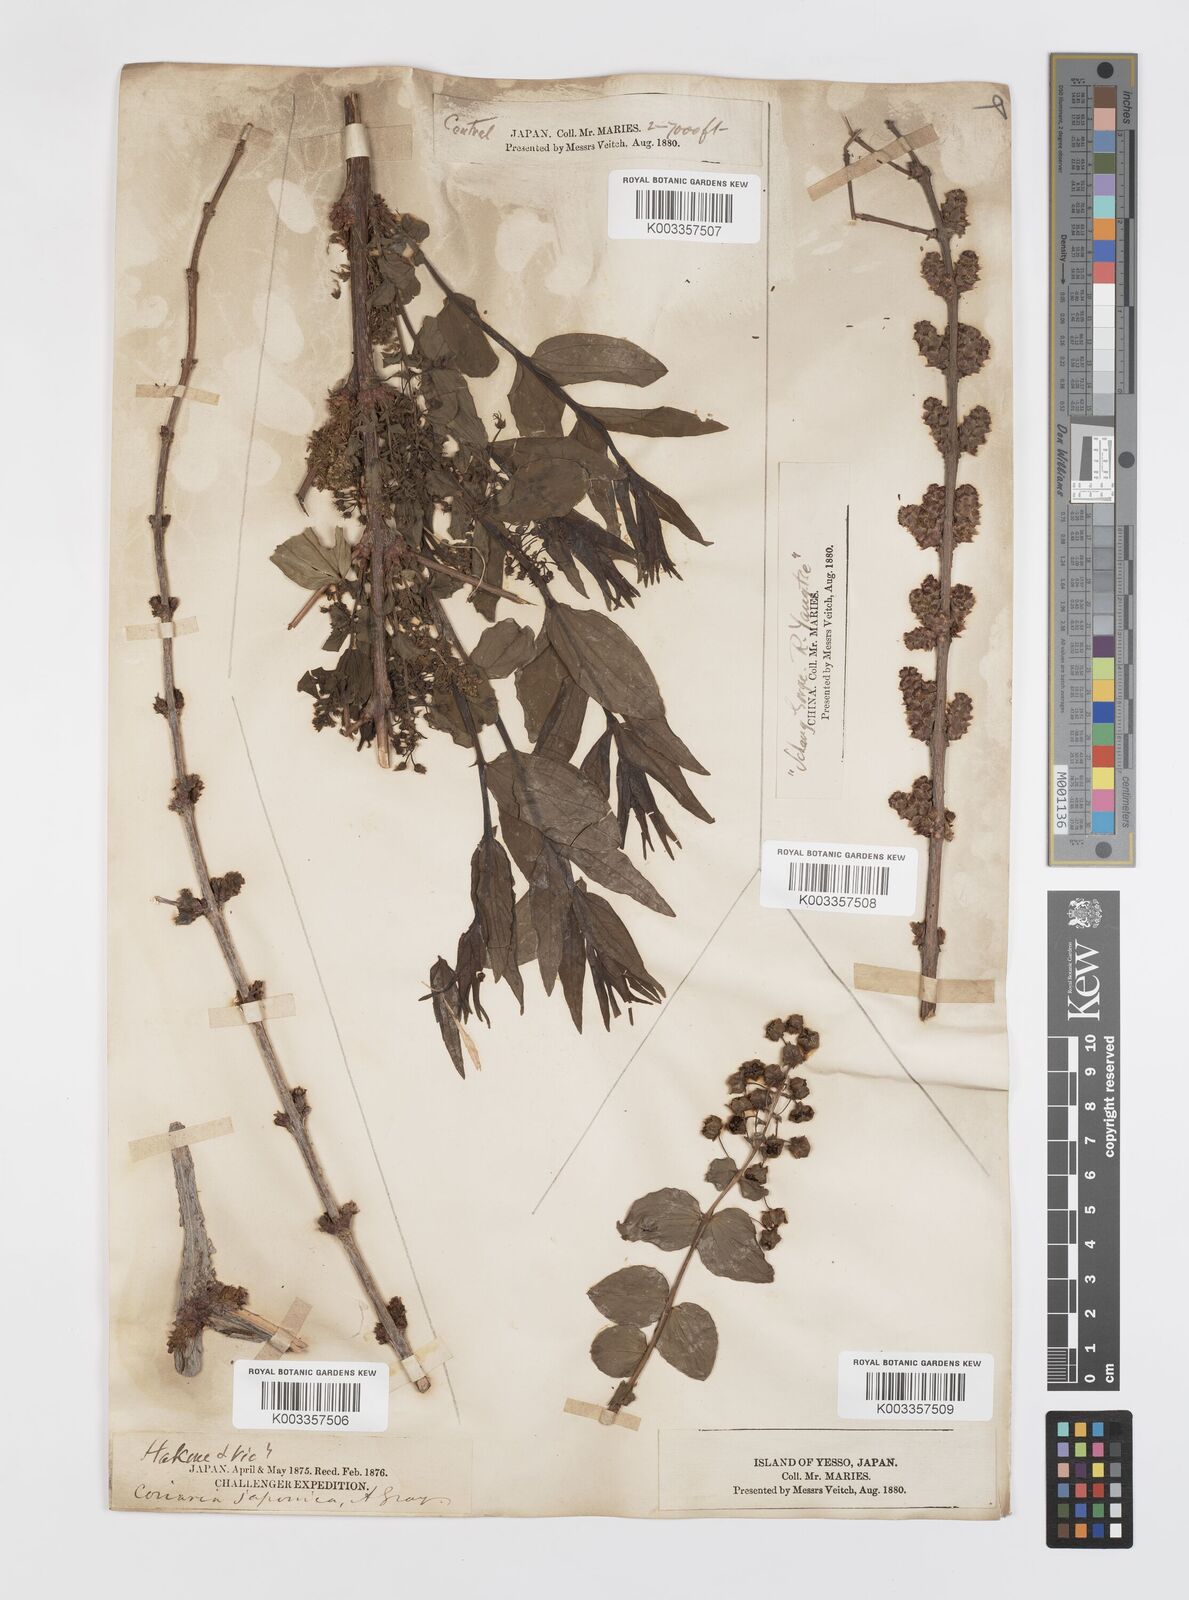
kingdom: Plantae
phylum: Tracheophyta
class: Magnoliopsida
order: Cucurbitales
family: Coriariaceae
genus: Coriaria
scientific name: Coriaria japonica
